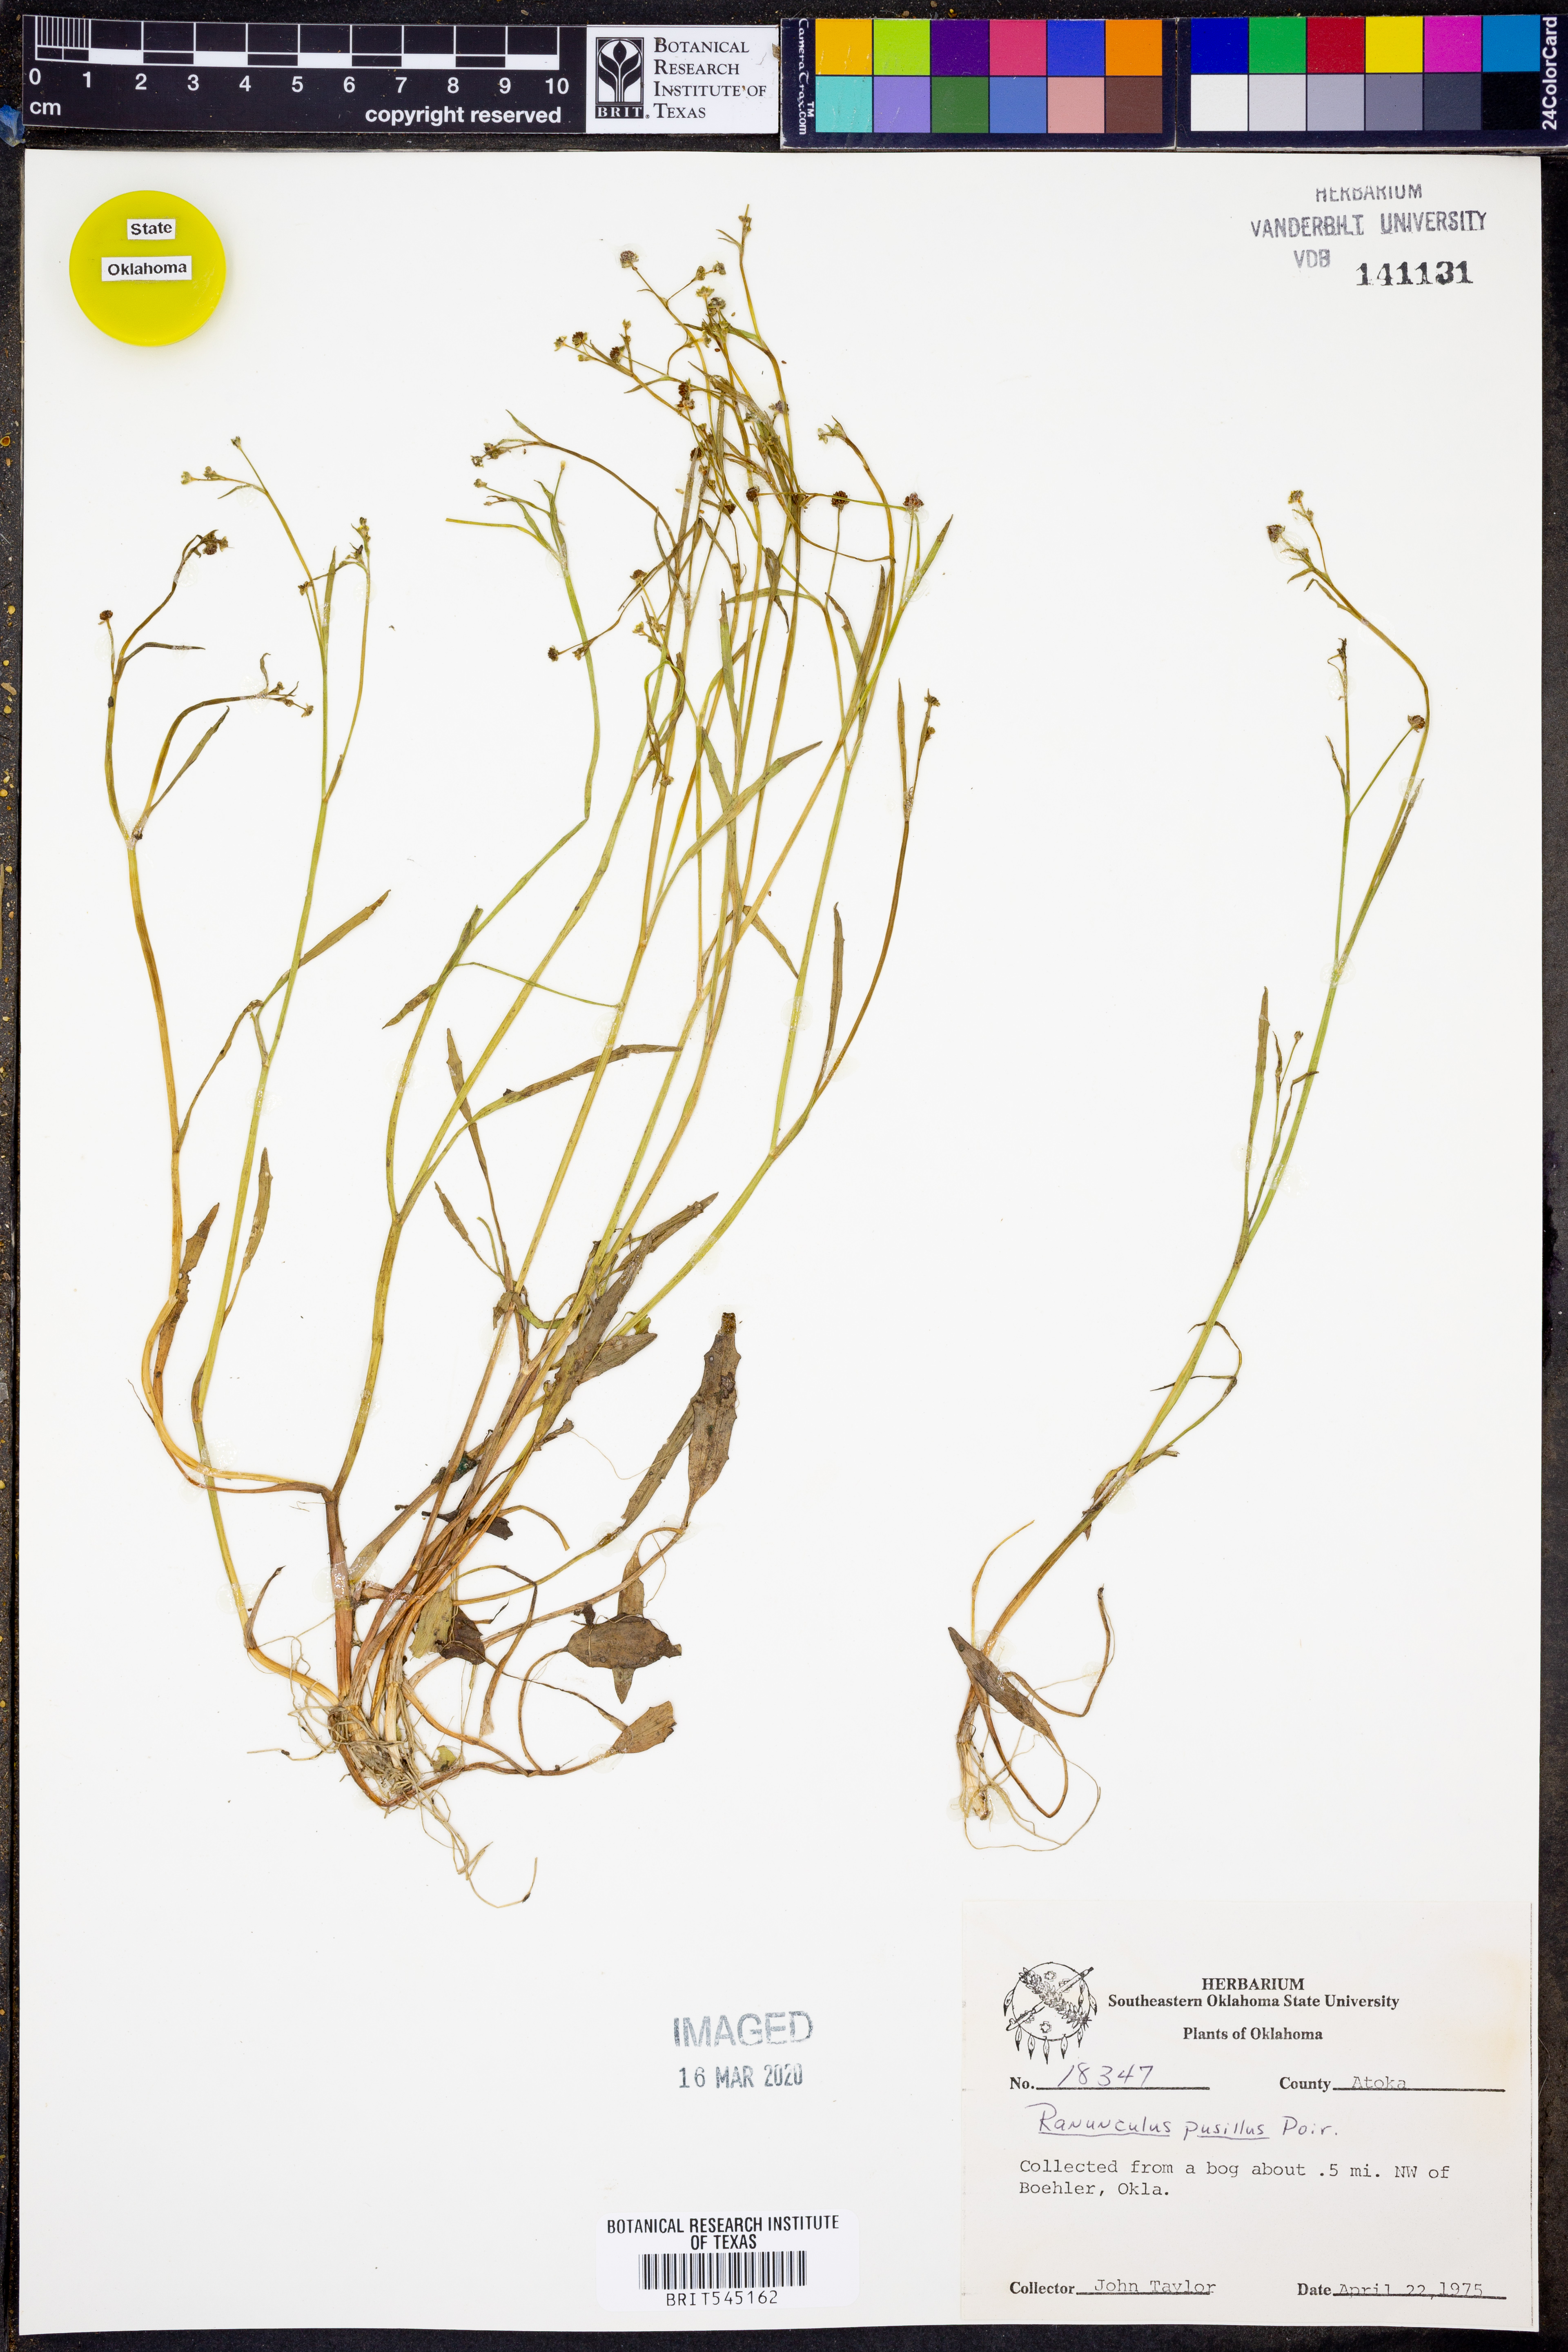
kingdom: Plantae
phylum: Tracheophyta
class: Magnoliopsida
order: Ranunculales
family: Ranunculaceae
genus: Ranunculus
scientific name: Ranunculus pusillus
